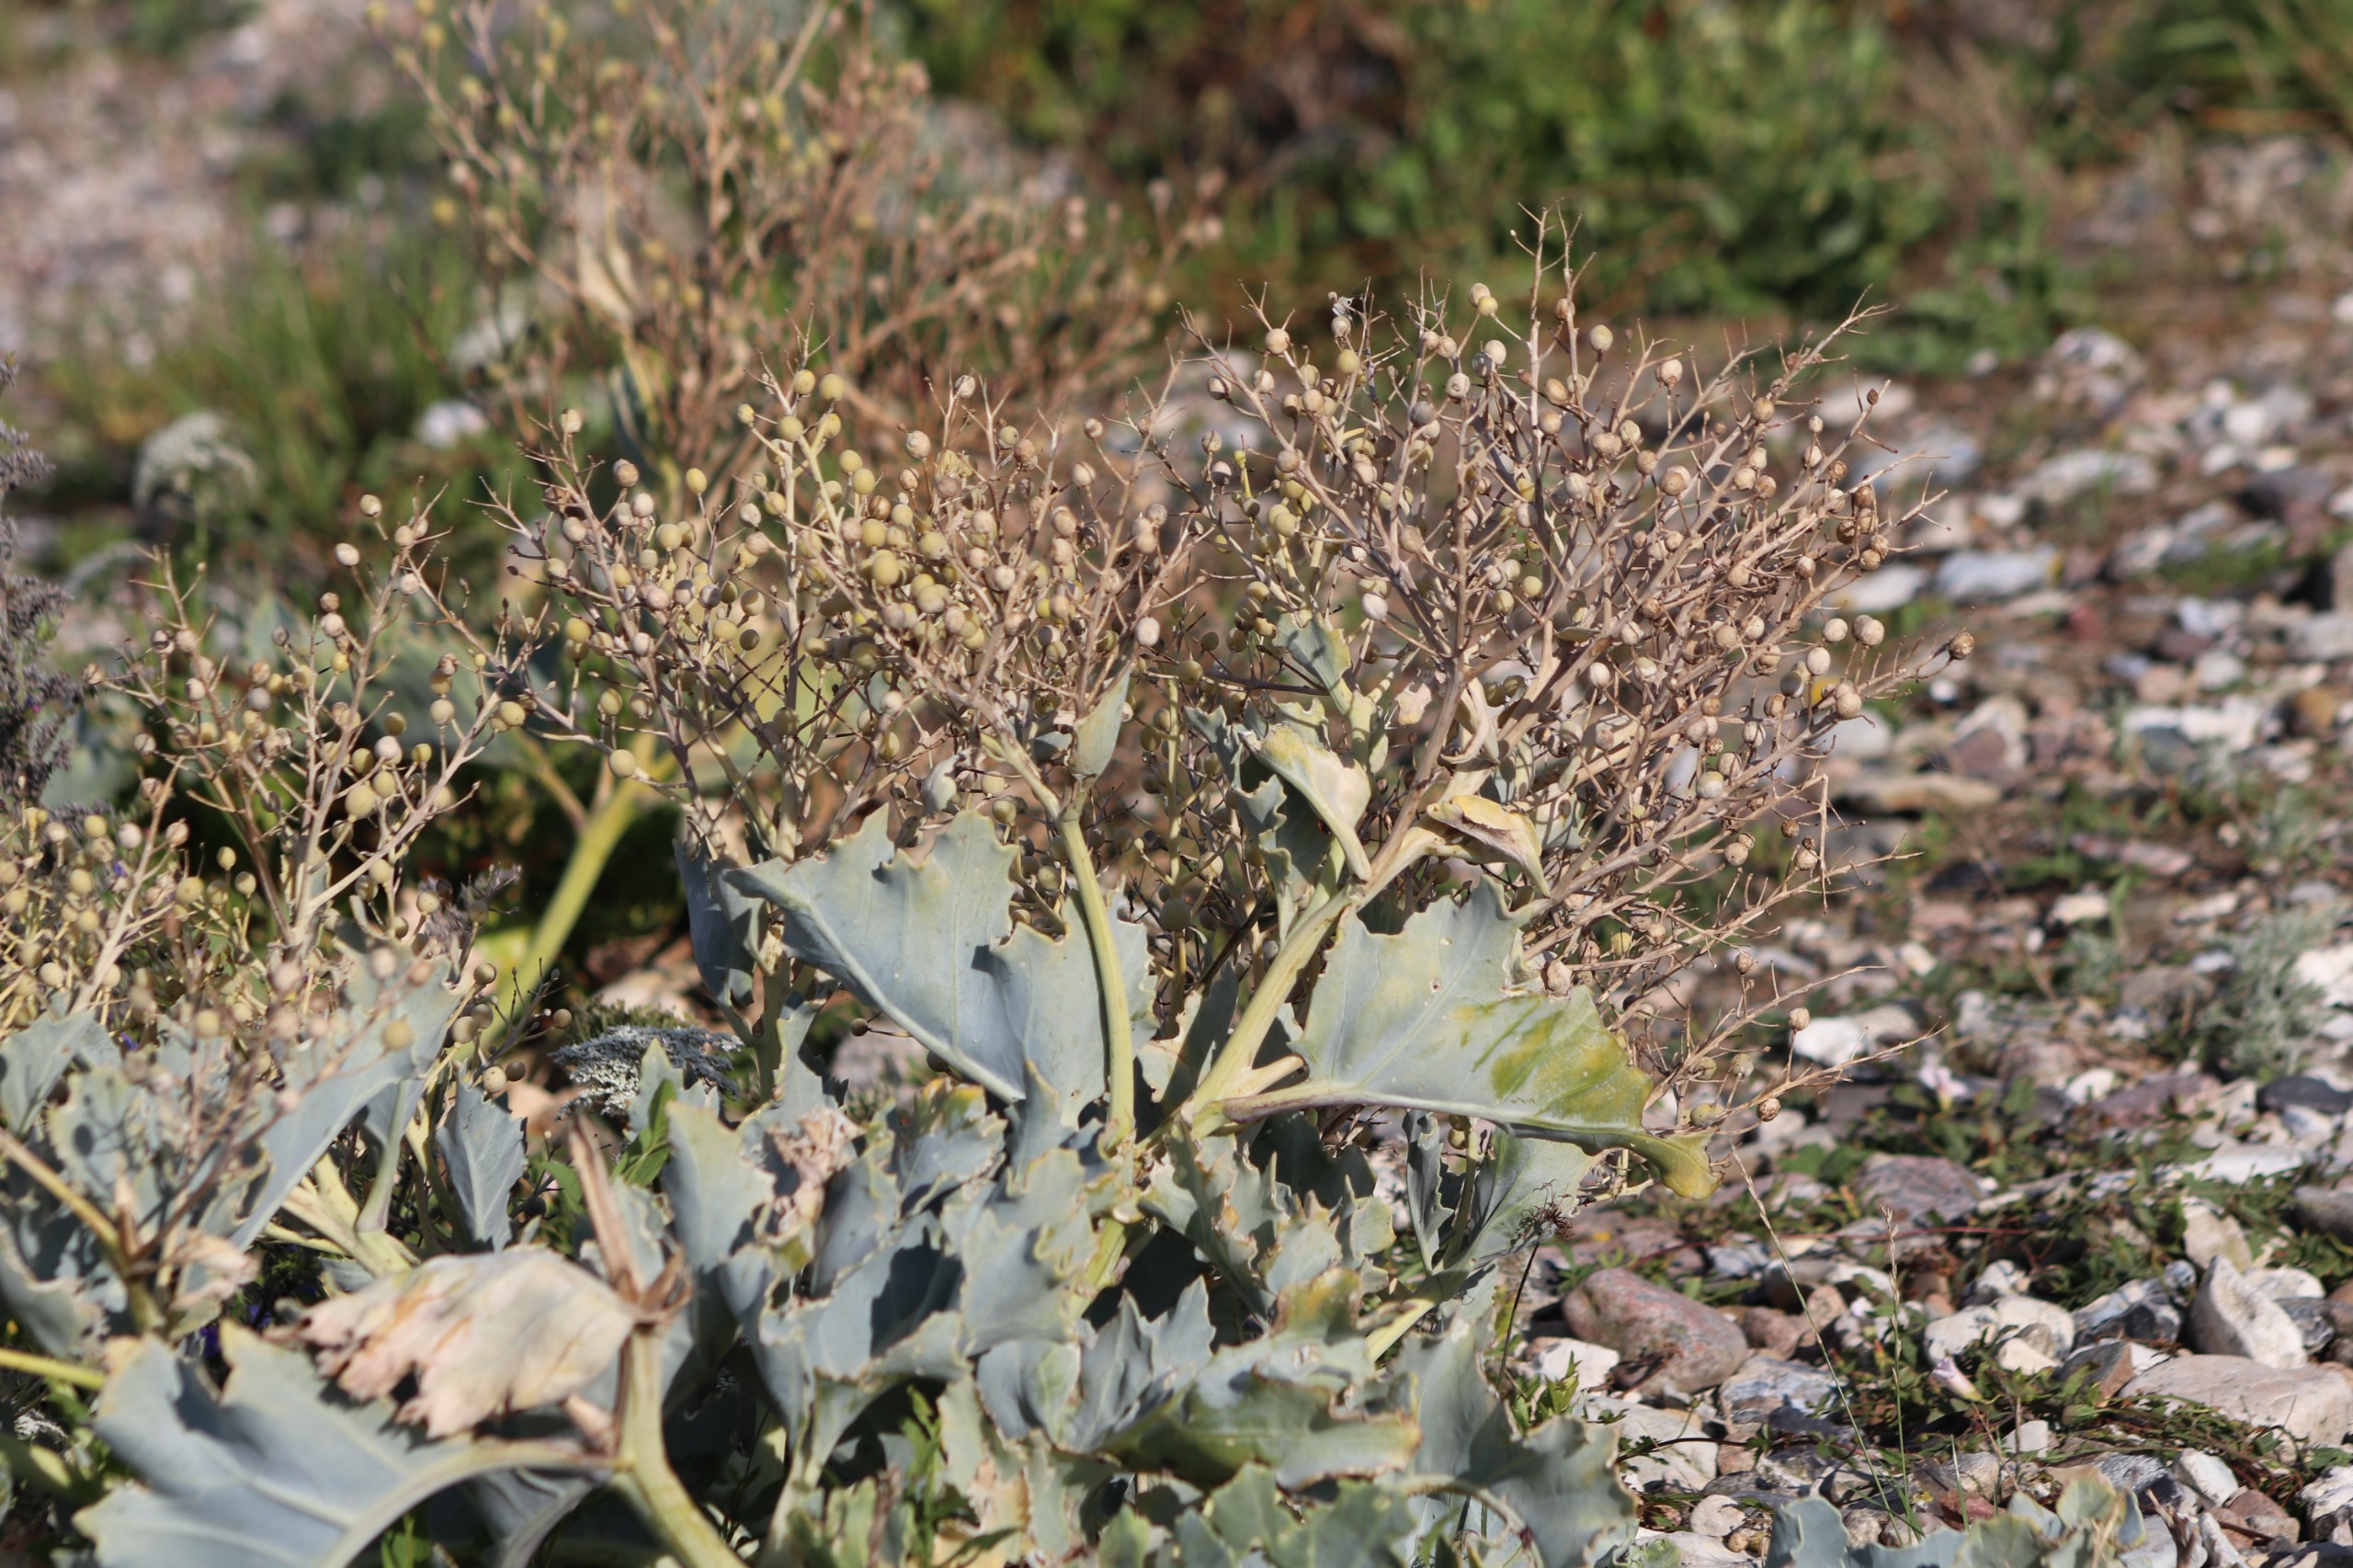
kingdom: Plantae
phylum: Tracheophyta
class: Magnoliopsida
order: Brassicales
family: Brassicaceae
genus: Crambe
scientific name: Crambe maritima
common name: Strandkål
